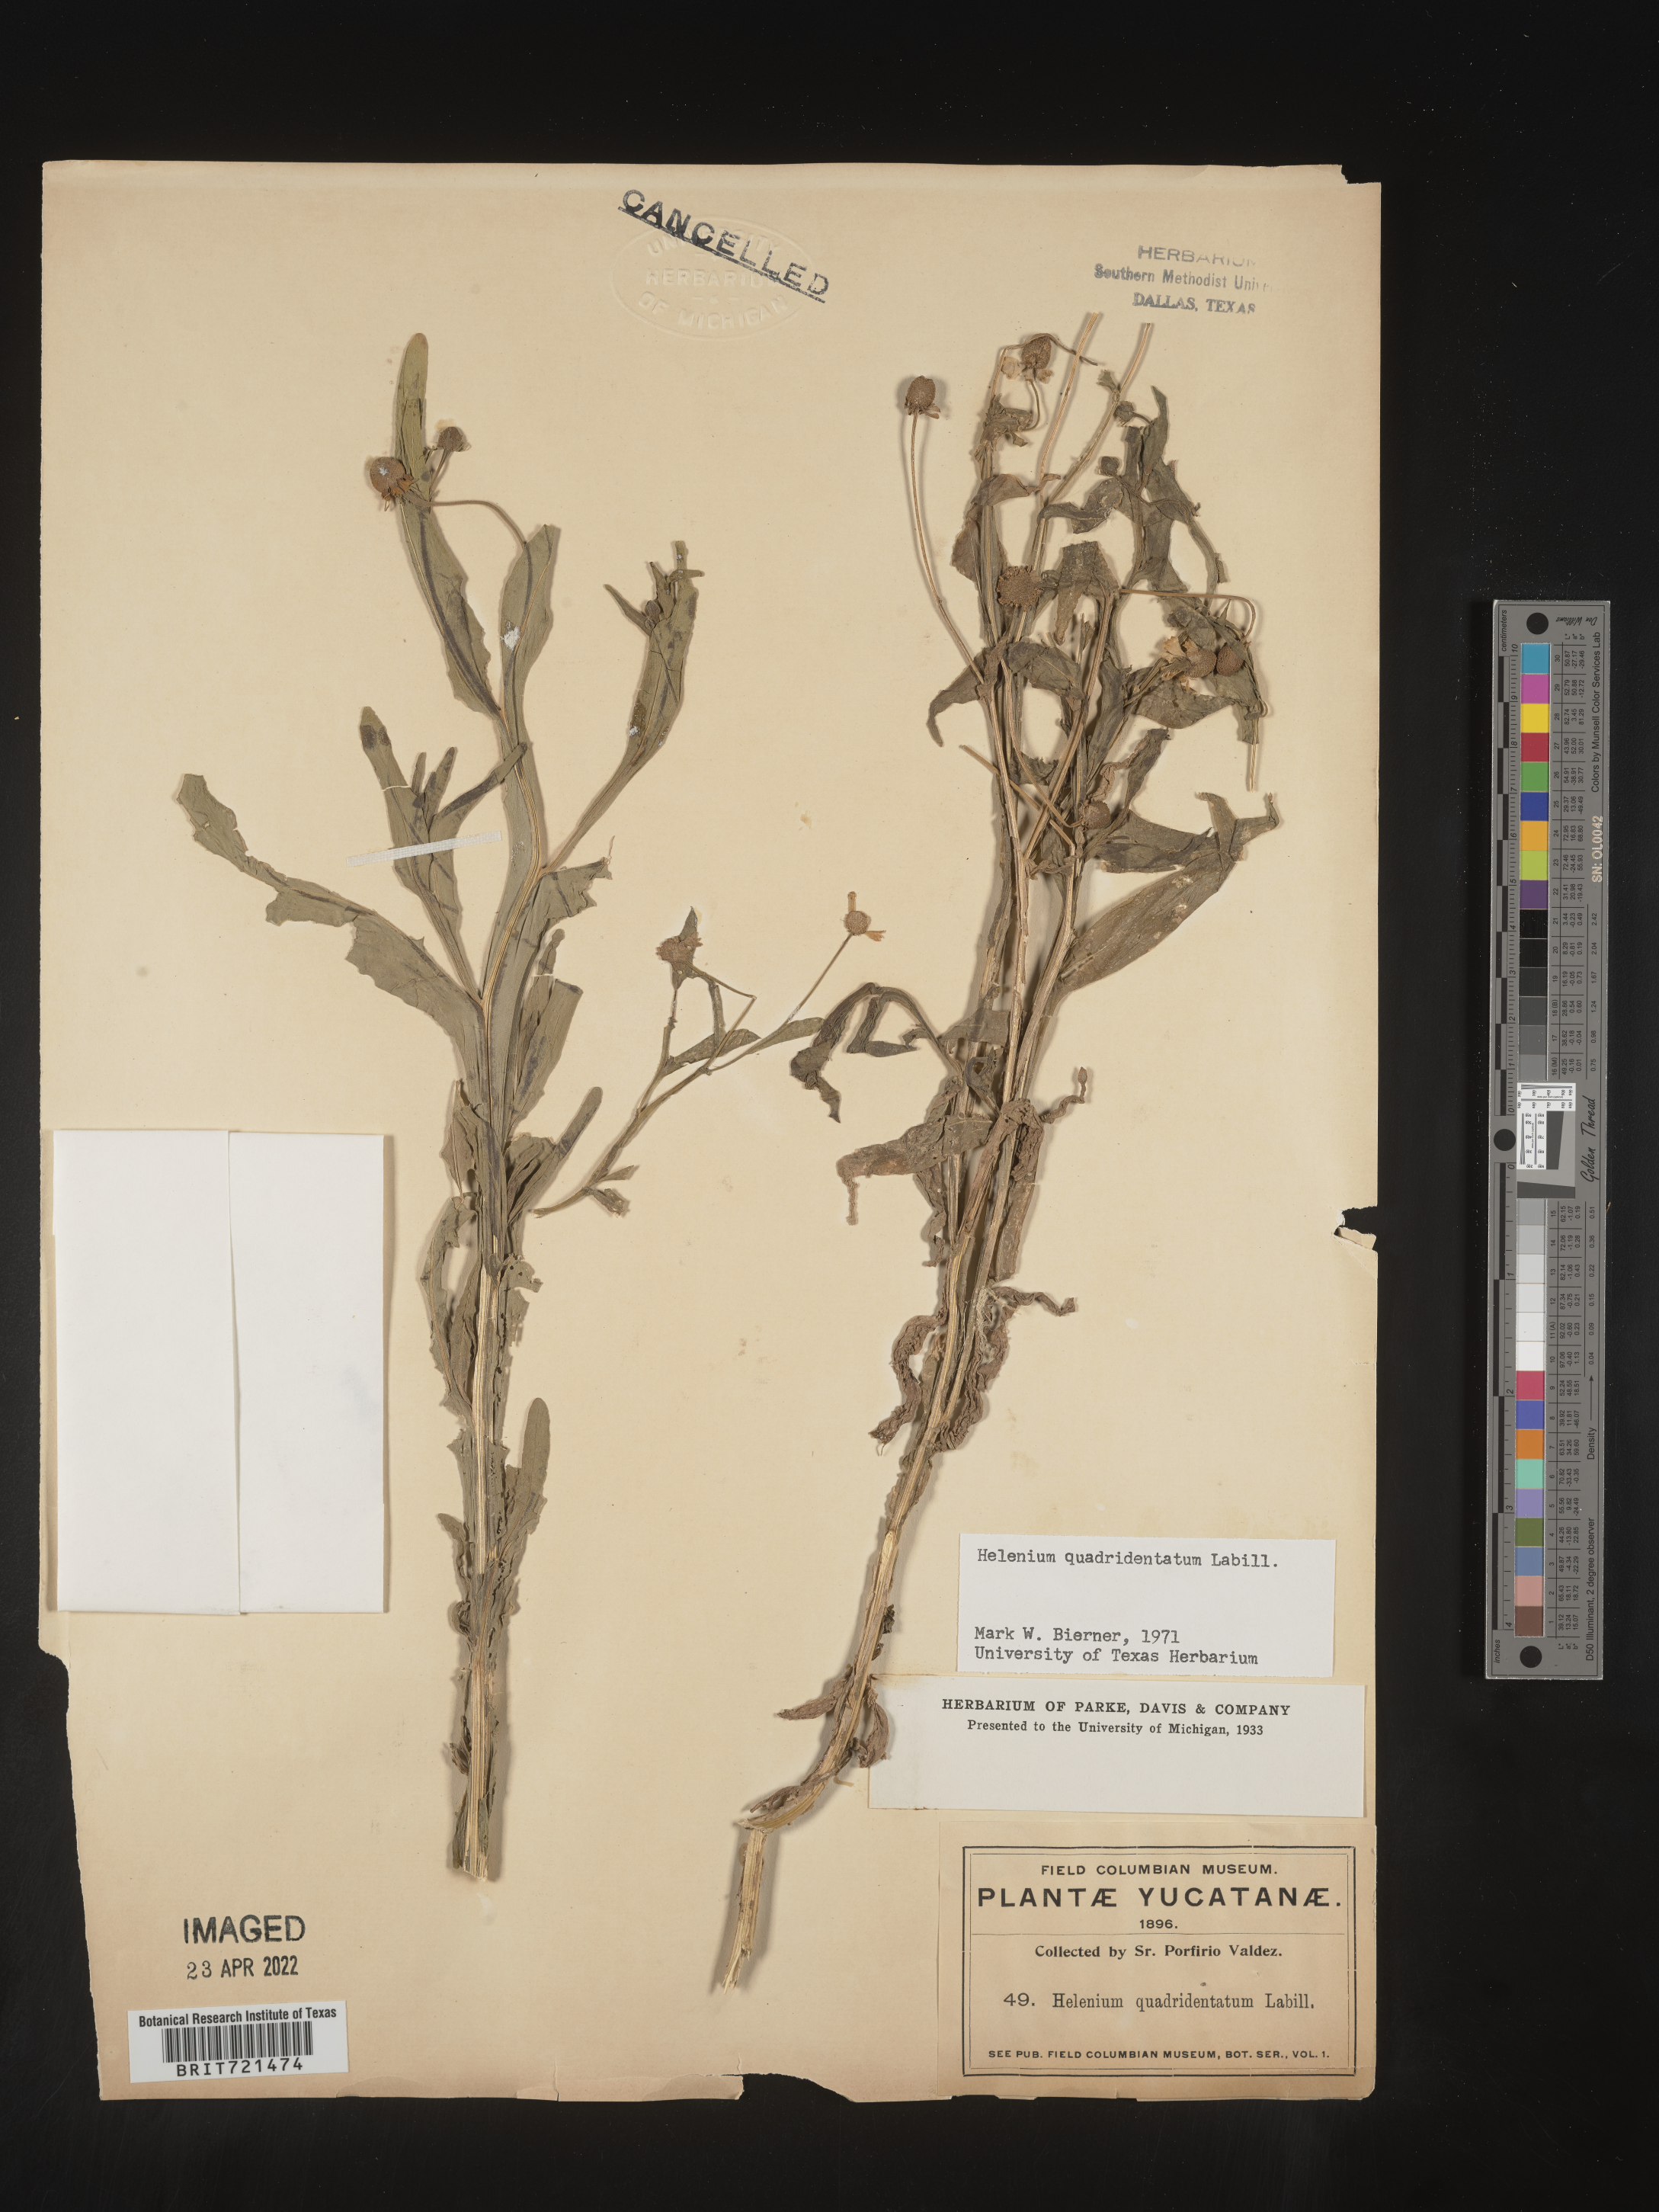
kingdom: Plantae
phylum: Tracheophyta
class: Magnoliopsida
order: Asterales
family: Asteraceae
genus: Helenium
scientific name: Helenium
